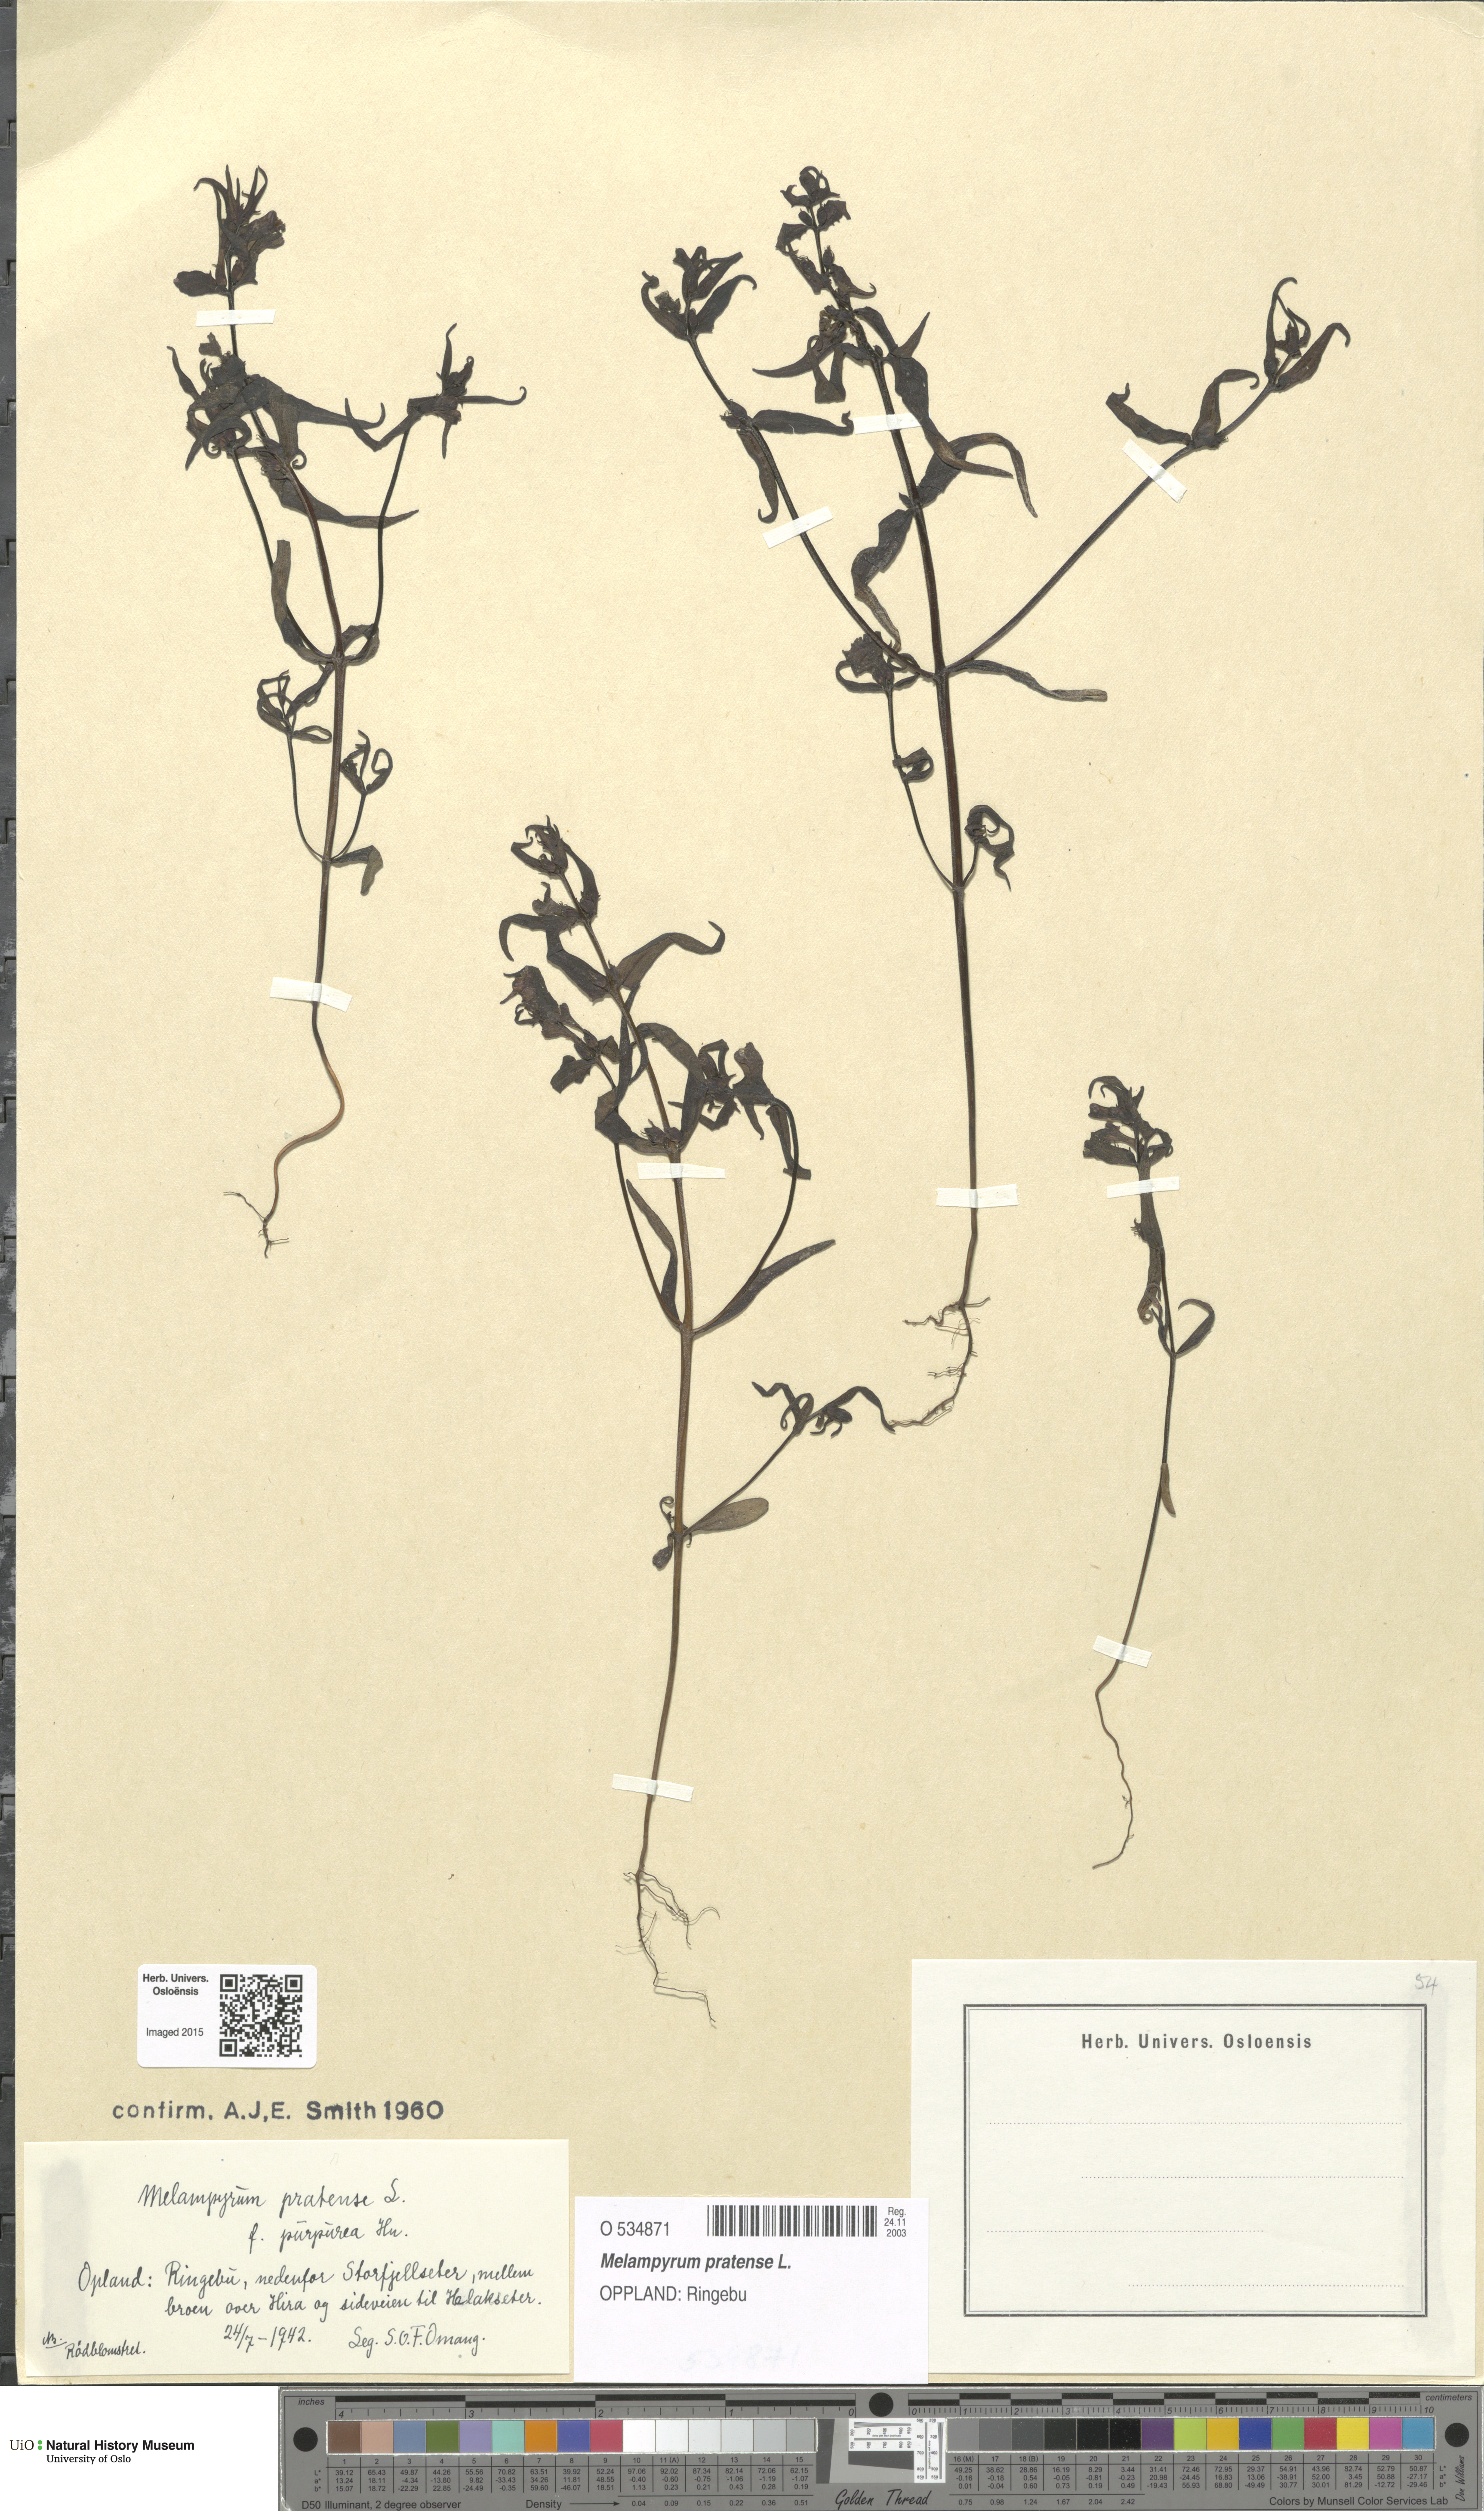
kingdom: Plantae
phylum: Tracheophyta
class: Magnoliopsida
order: Lamiales
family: Orobanchaceae
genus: Melampyrum
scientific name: Melampyrum pratense
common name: Common cow-wheat
